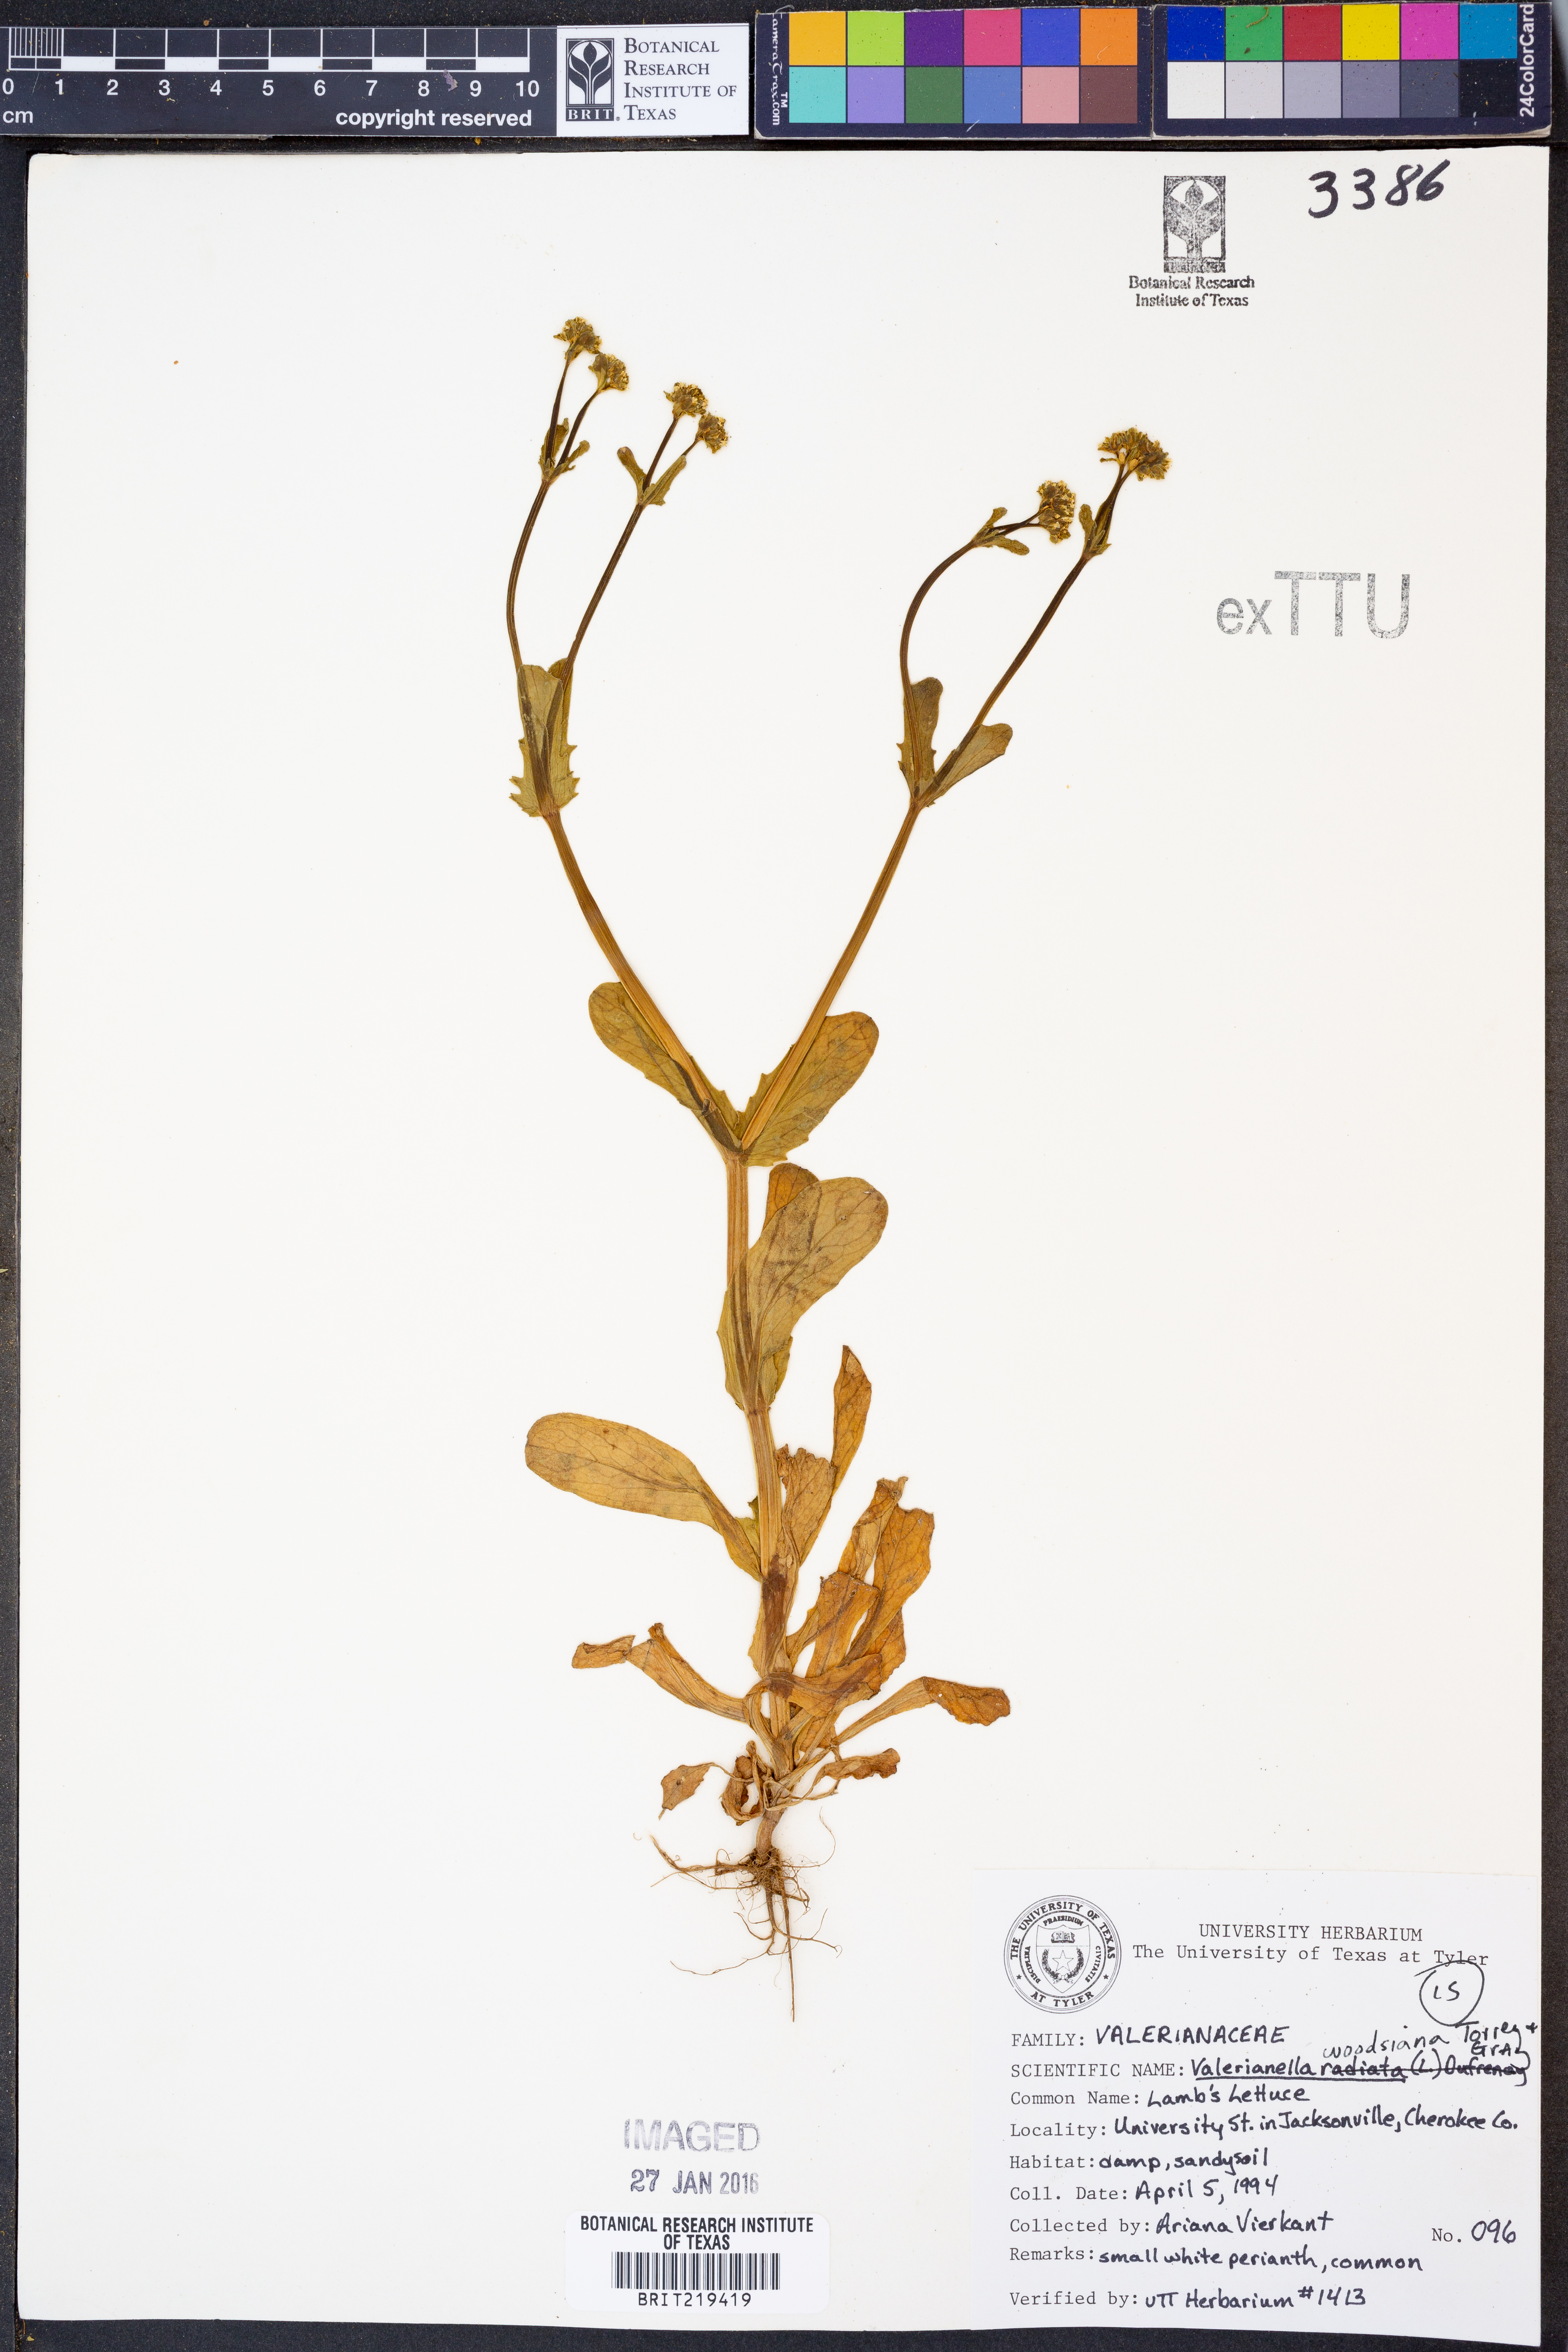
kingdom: Plantae
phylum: Tracheophyta
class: Magnoliopsida
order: Dipsacales
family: Caprifoliaceae
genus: Valerianella
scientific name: Valerianella radiata
